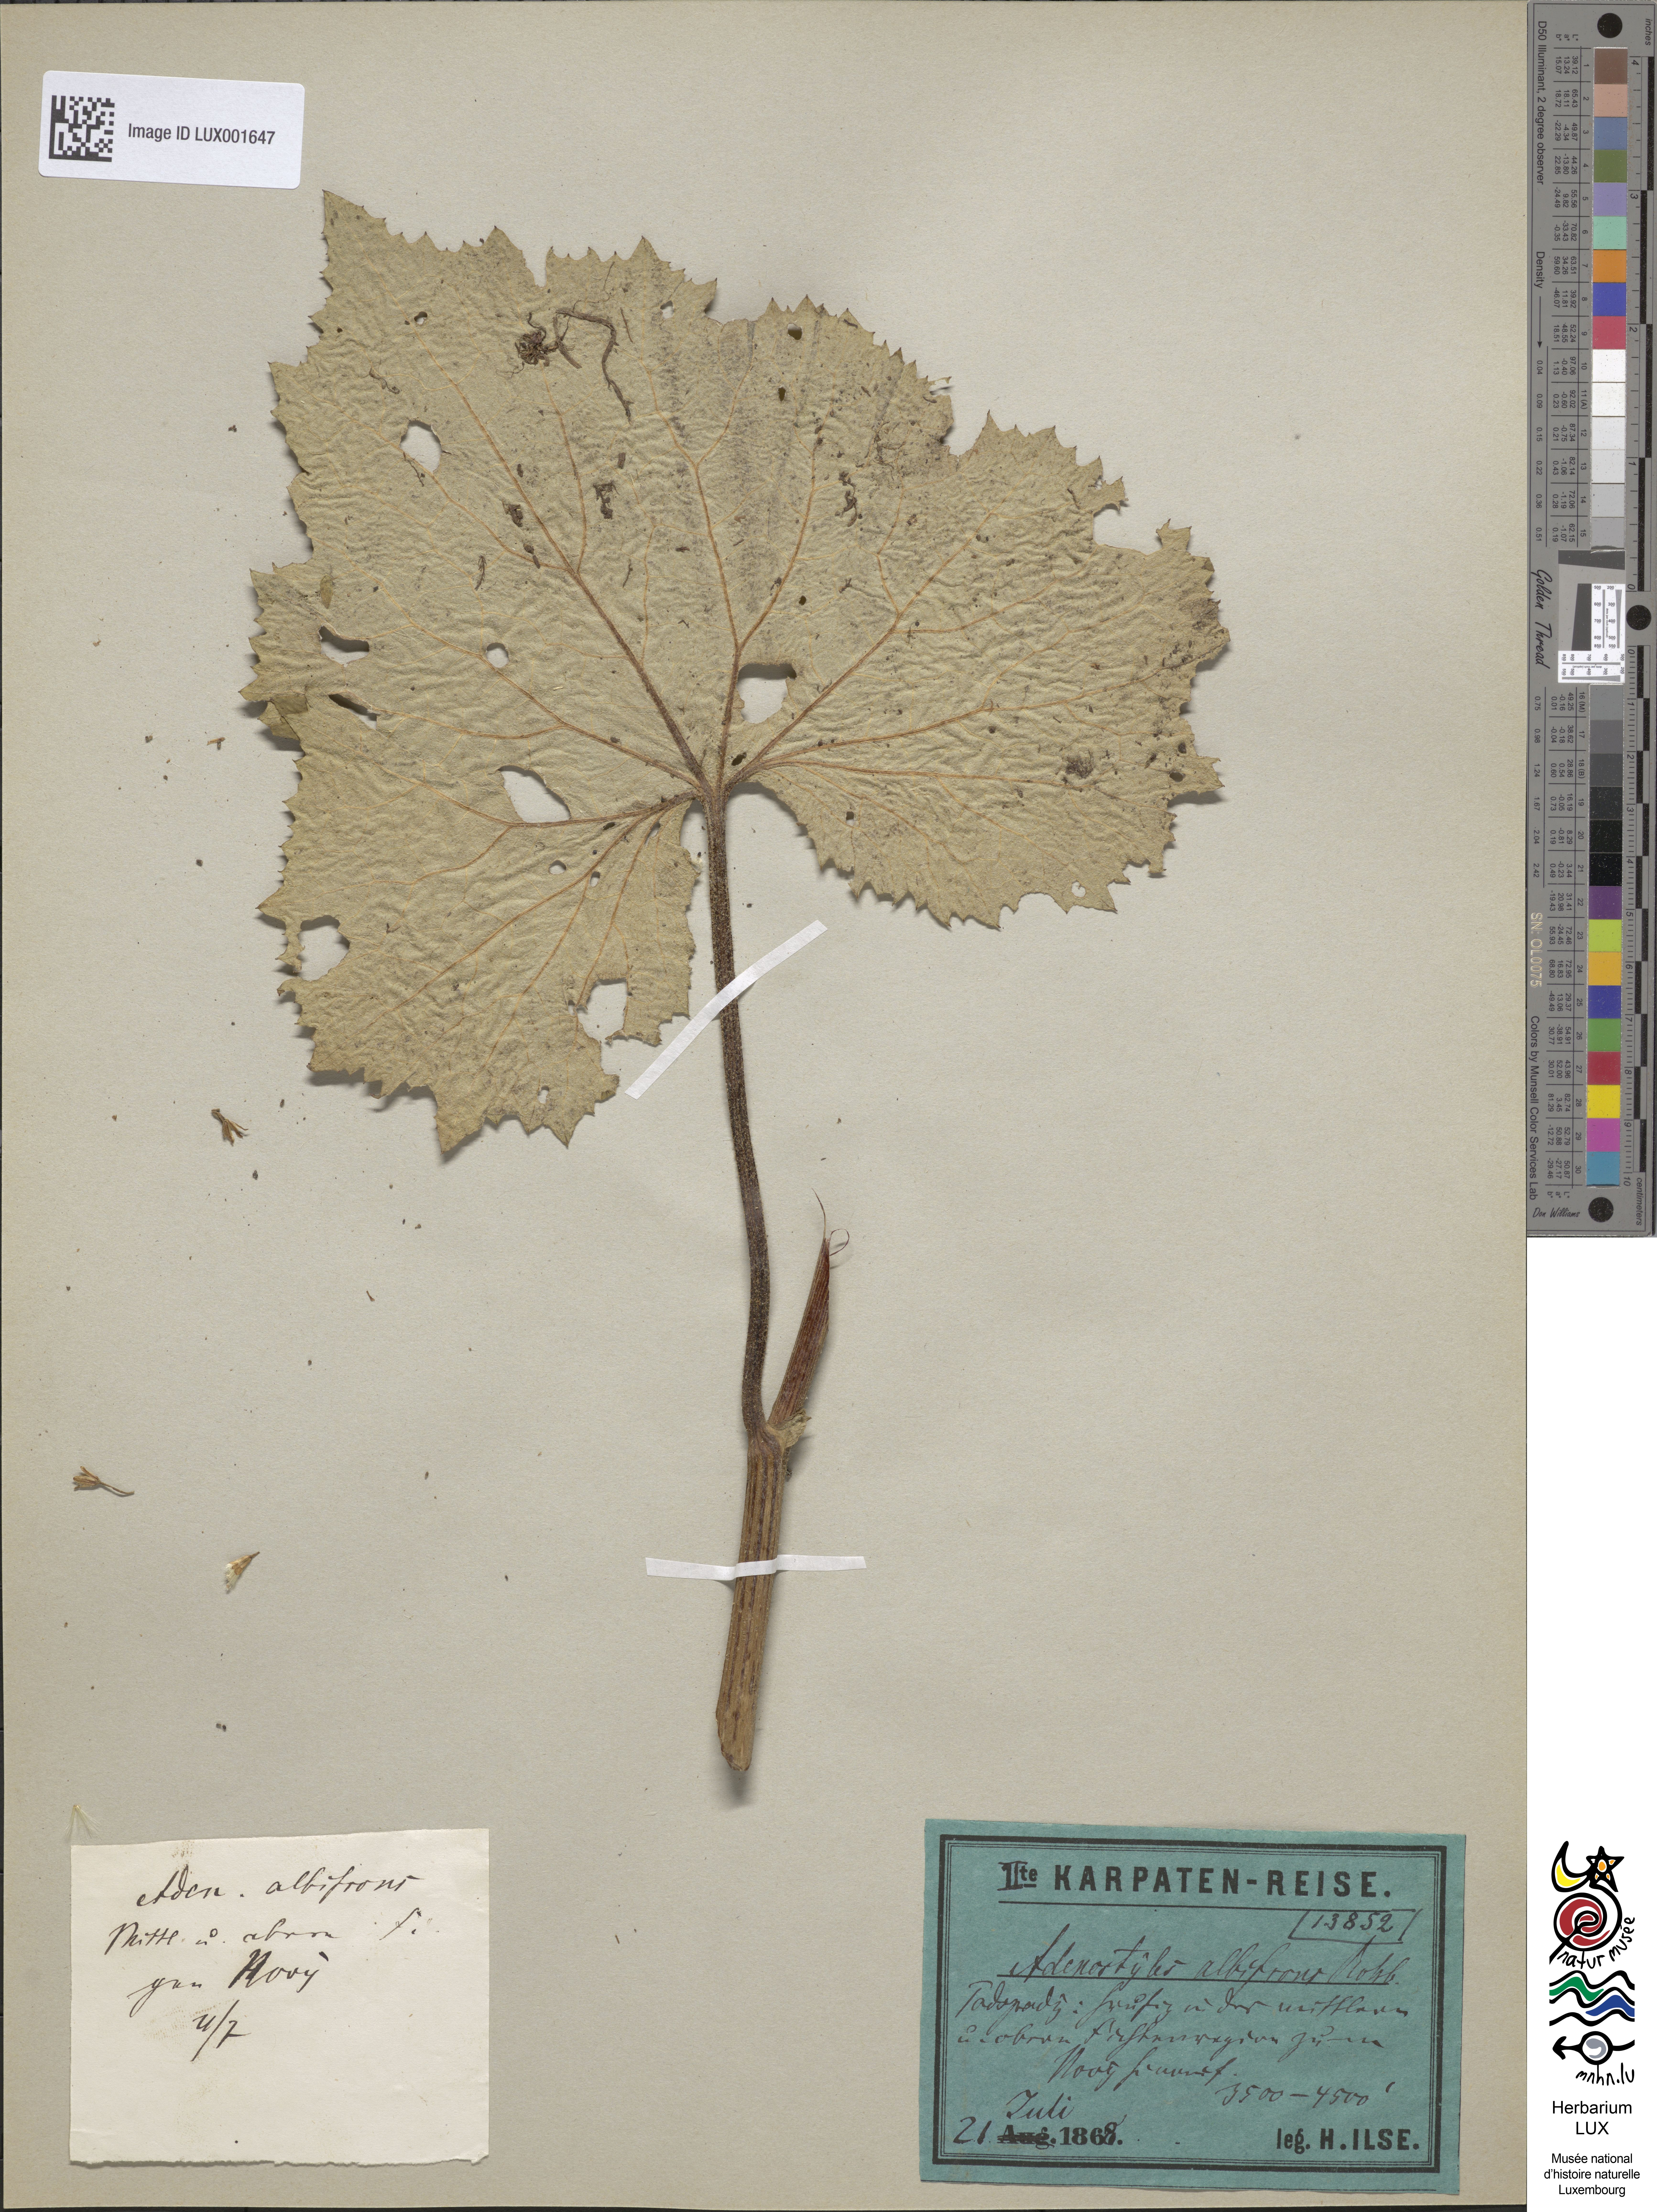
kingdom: Plantae
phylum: Tracheophyta
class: Magnoliopsida
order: Asterales
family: Asteraceae
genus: Adenostyles
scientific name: Adenostyles alliariae
